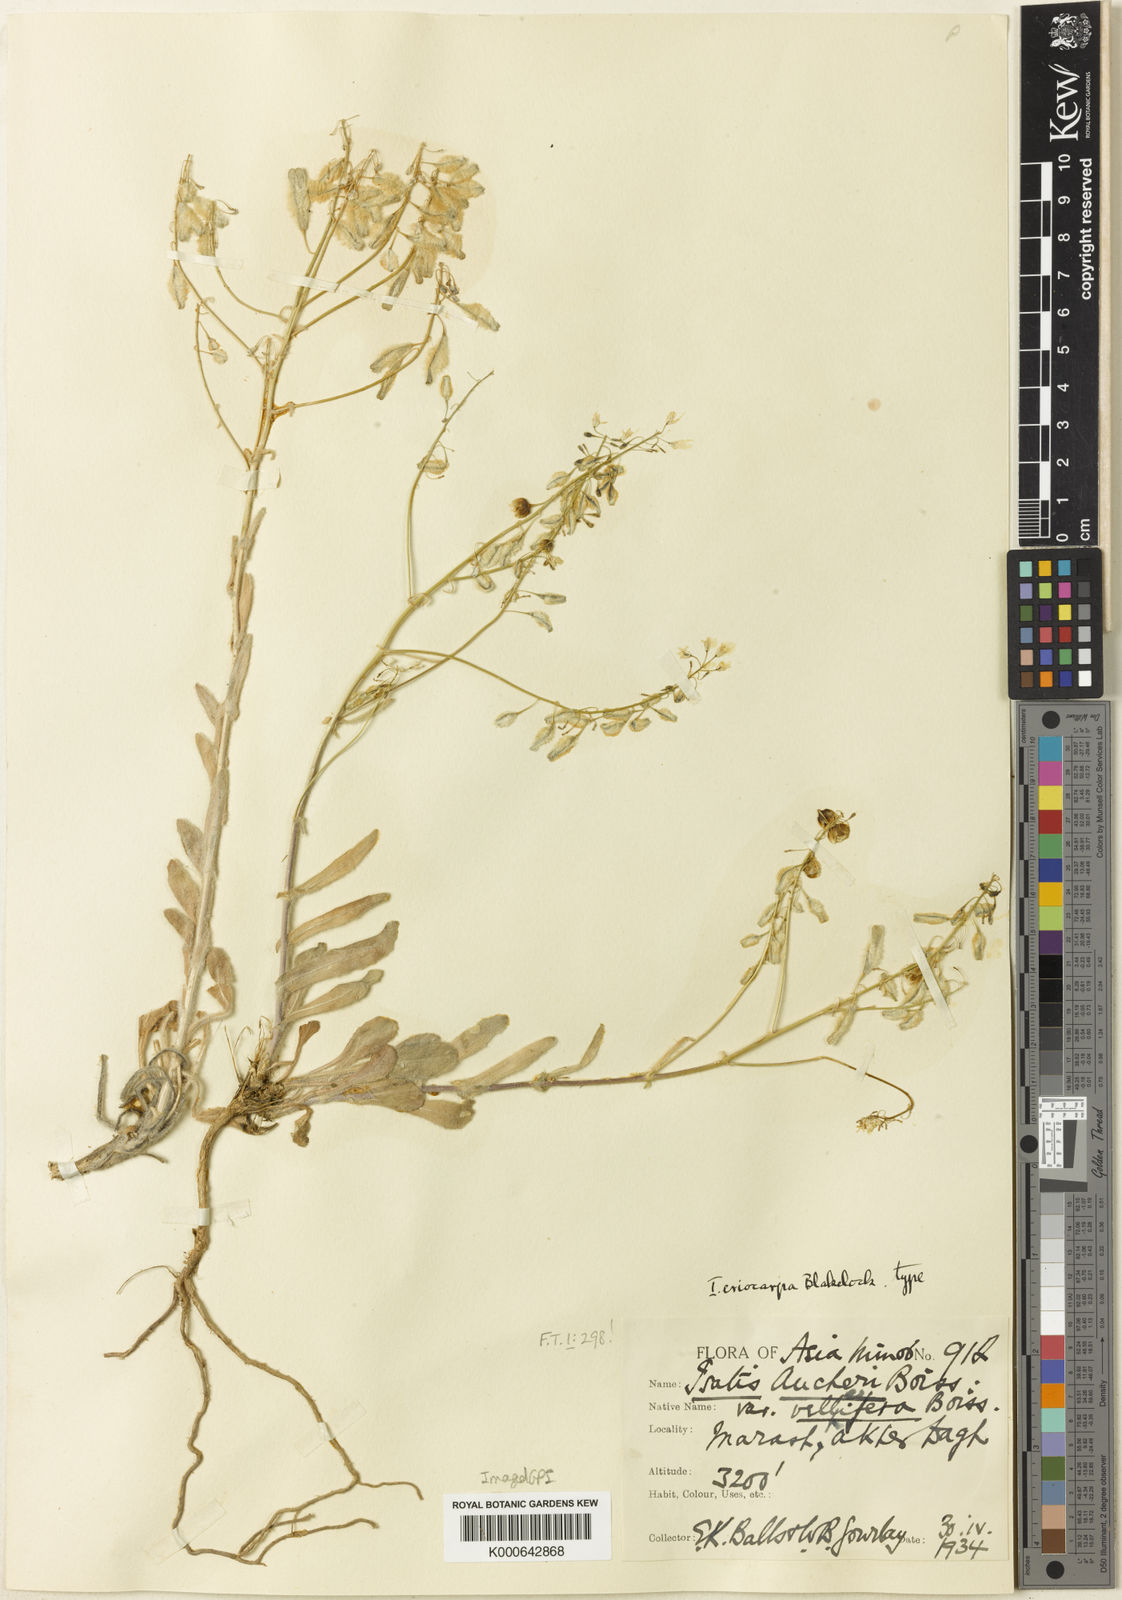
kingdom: Plantae
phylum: Tracheophyta
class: Magnoliopsida
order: Brassicales
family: Brassicaceae
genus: Isatis
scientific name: Isatis aucheri
